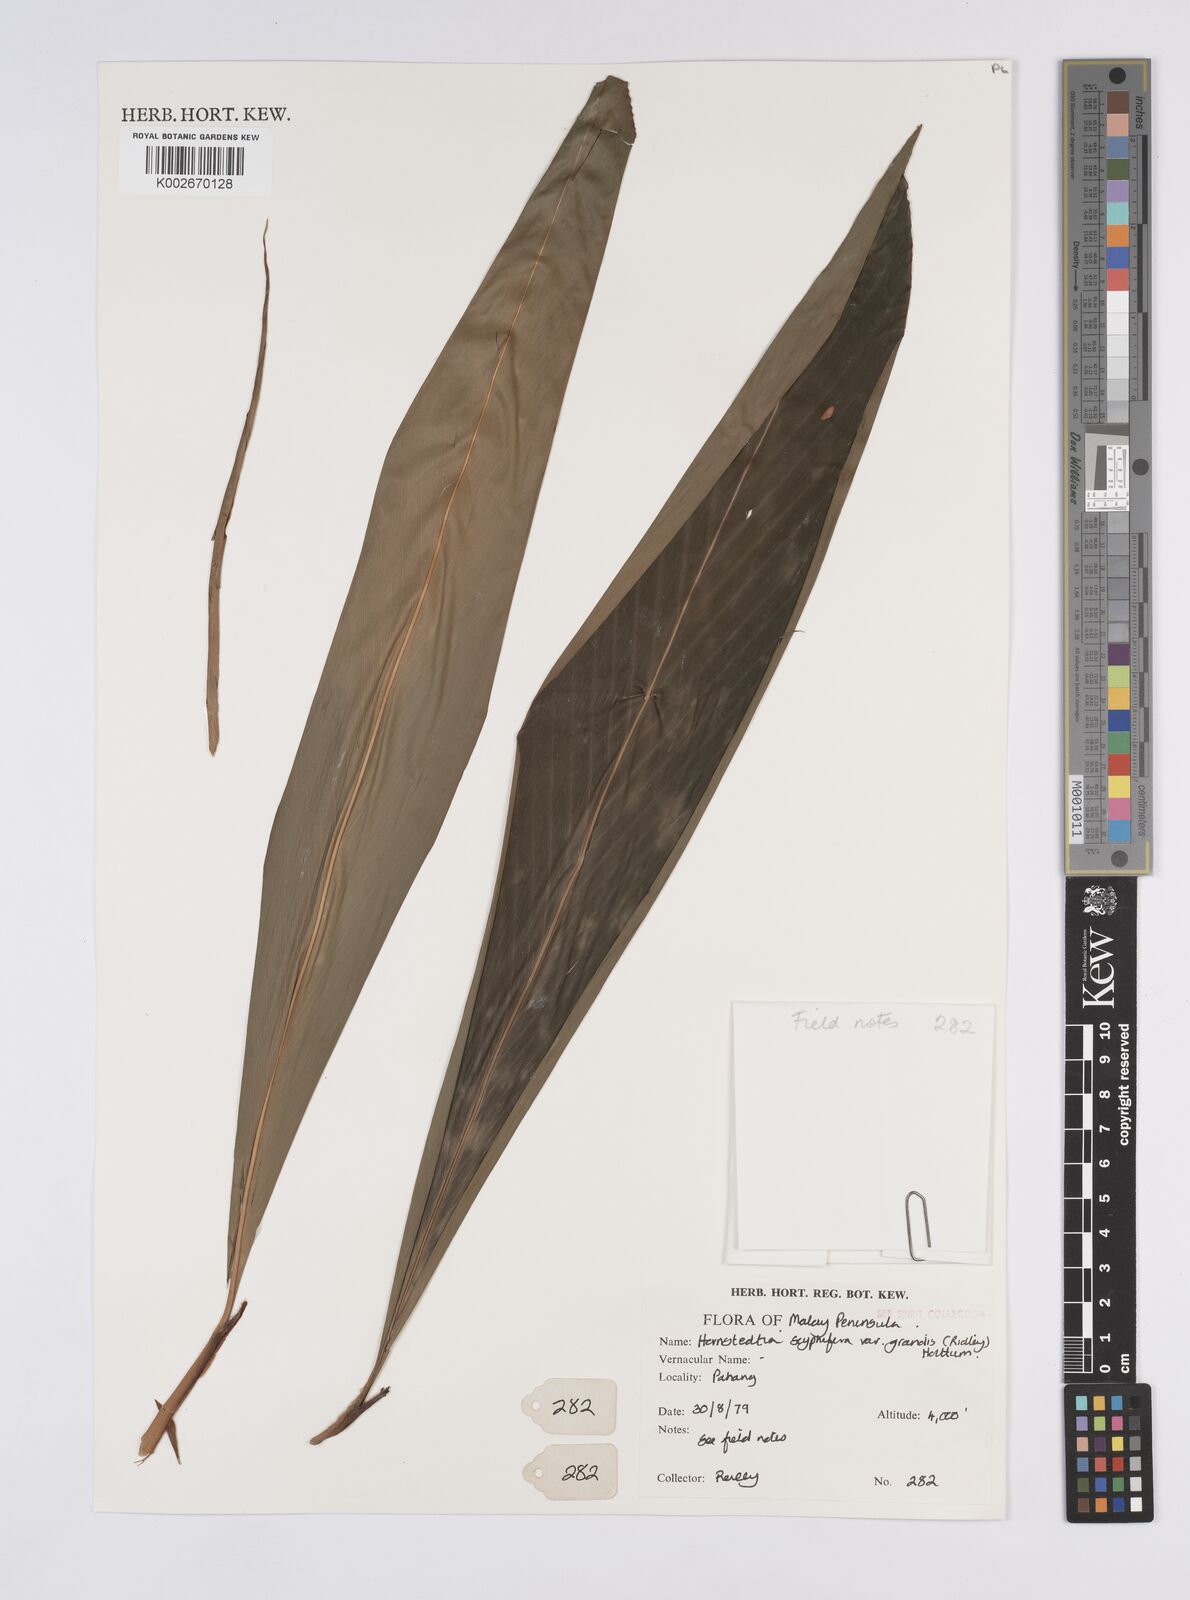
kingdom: Plantae
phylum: Tracheophyta
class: Liliopsida
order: Zingiberales
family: Zingiberaceae
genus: Hornstedtia
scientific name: Hornstedtia scyphifera
